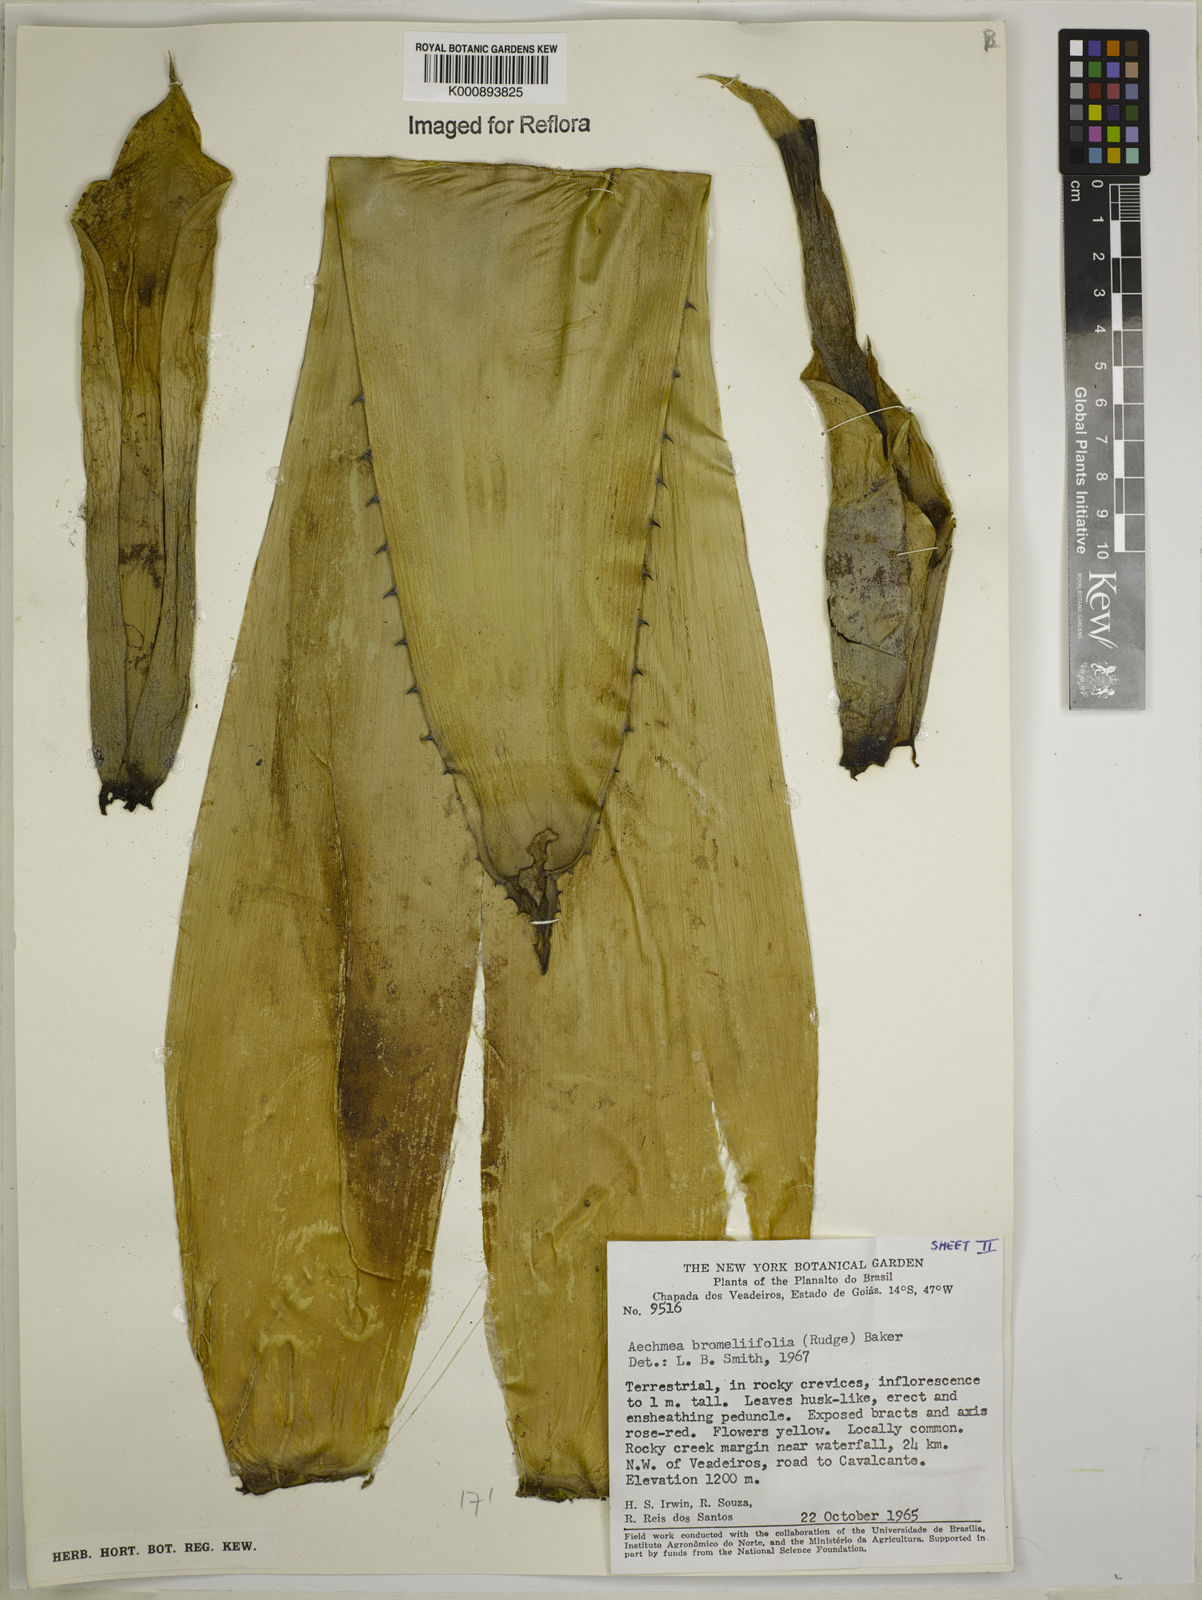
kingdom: Plantae
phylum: Tracheophyta
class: Liliopsida
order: Poales
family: Bromeliaceae
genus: Aechmea
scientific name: Aechmea
